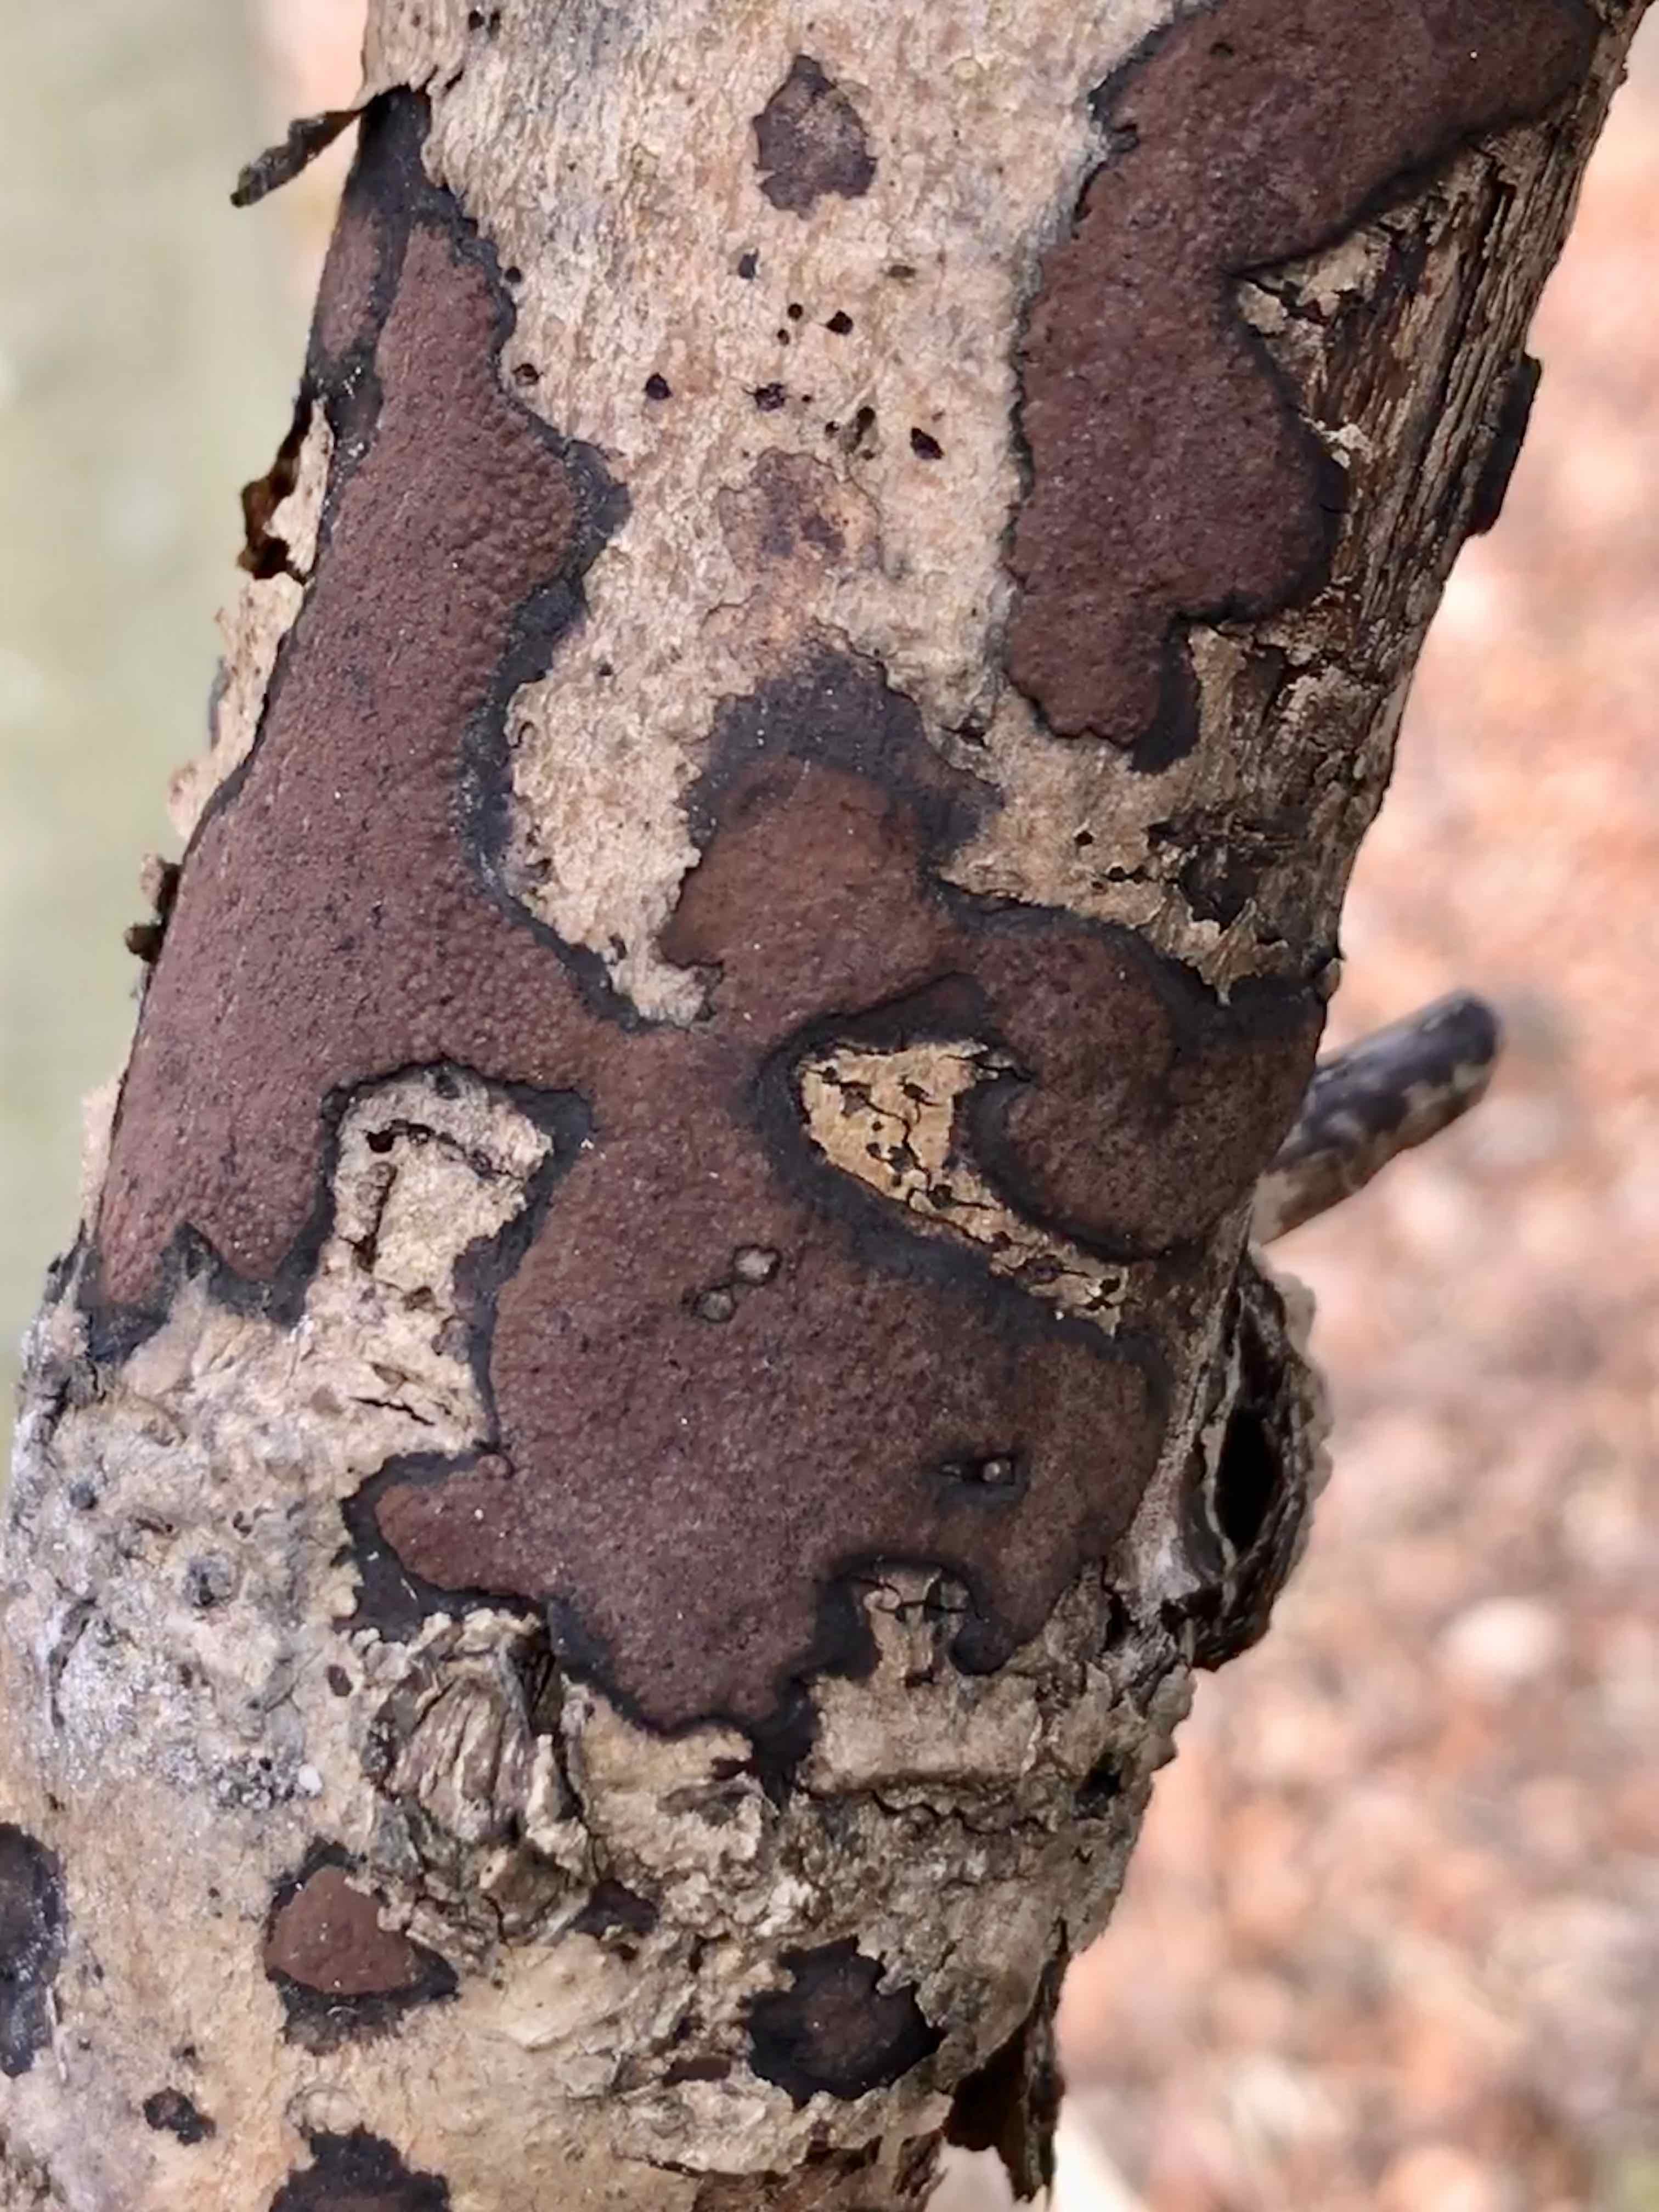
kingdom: Fungi
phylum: Ascomycota
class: Sordariomycetes
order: Xylariales
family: Hypoxylaceae
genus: Hypoxylon
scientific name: Hypoxylon petriniae
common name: nedsænket kulbær
